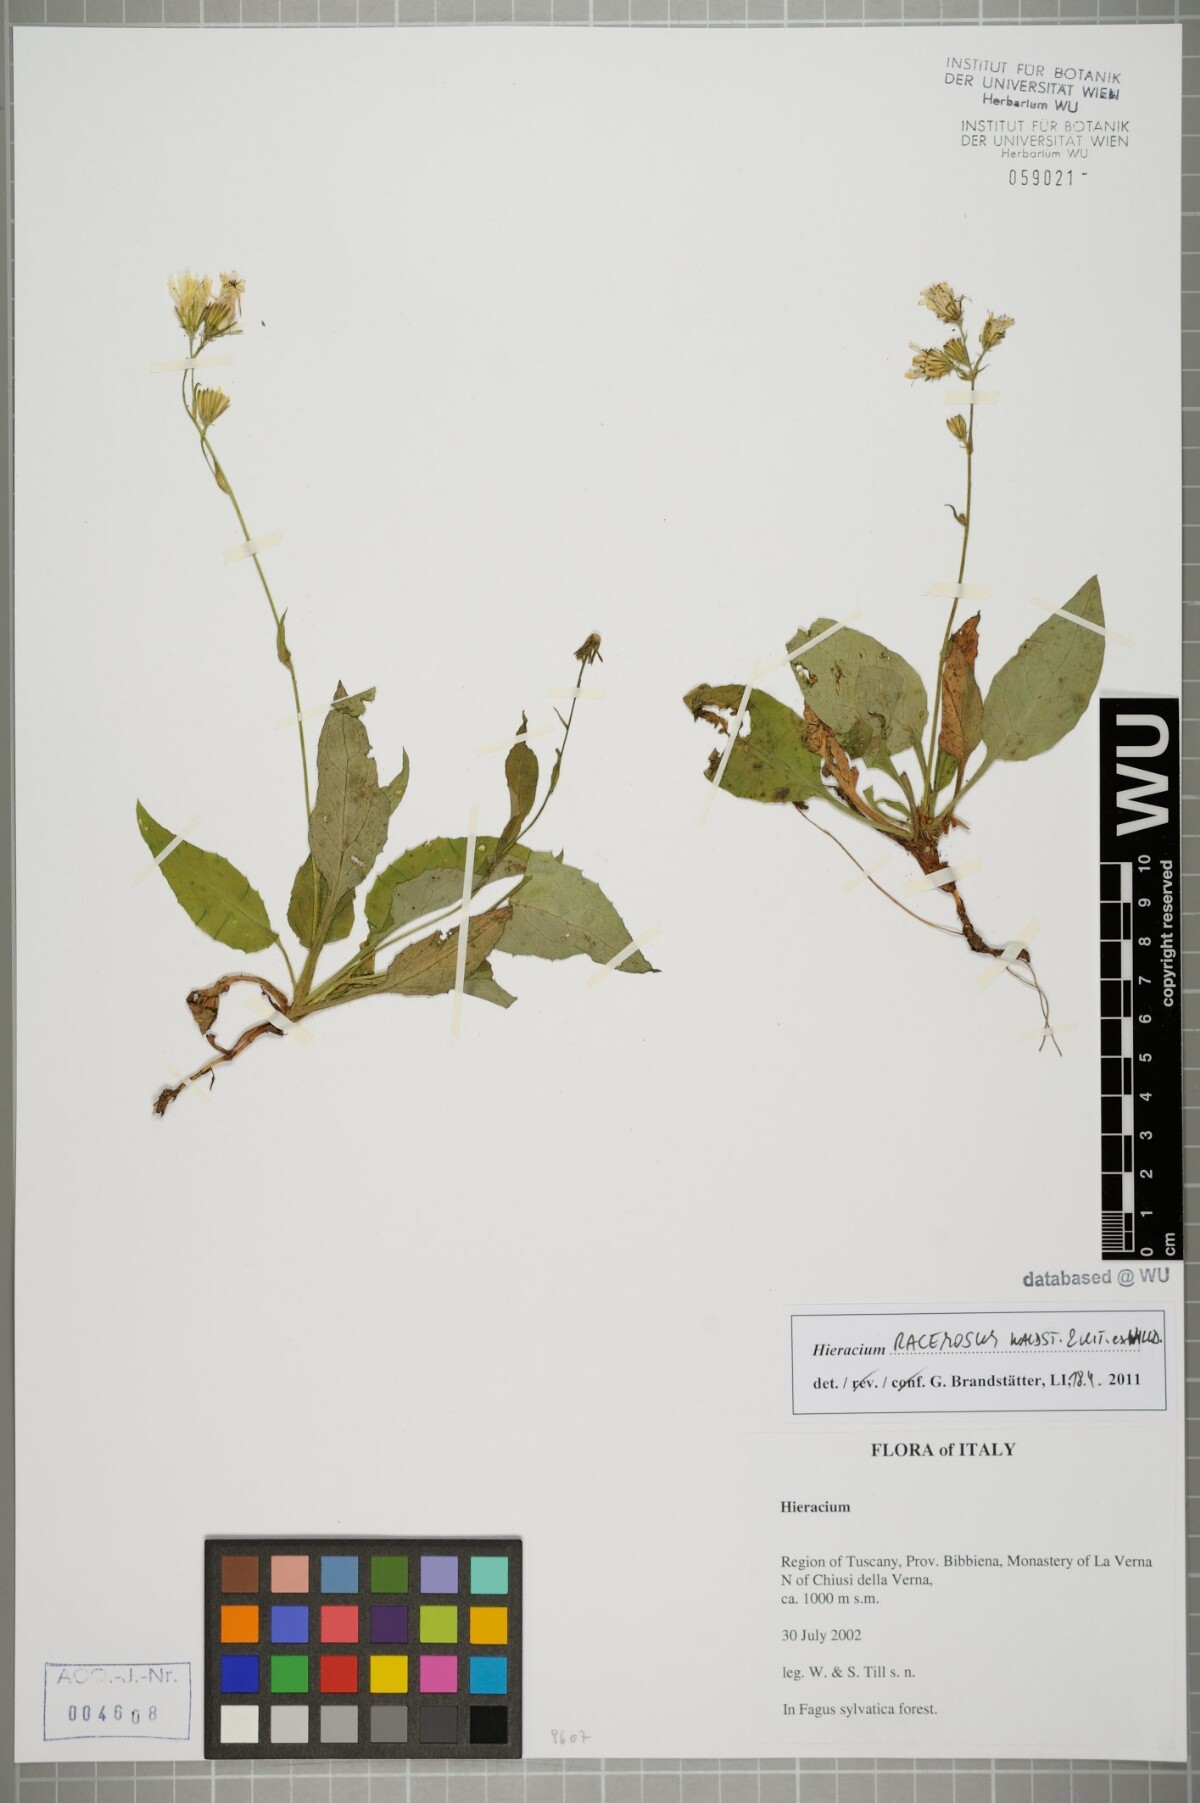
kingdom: Plantae
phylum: Tracheophyta
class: Magnoliopsida
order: Asterales
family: Asteraceae
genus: Hieracium
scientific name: Hieracium racemosum
